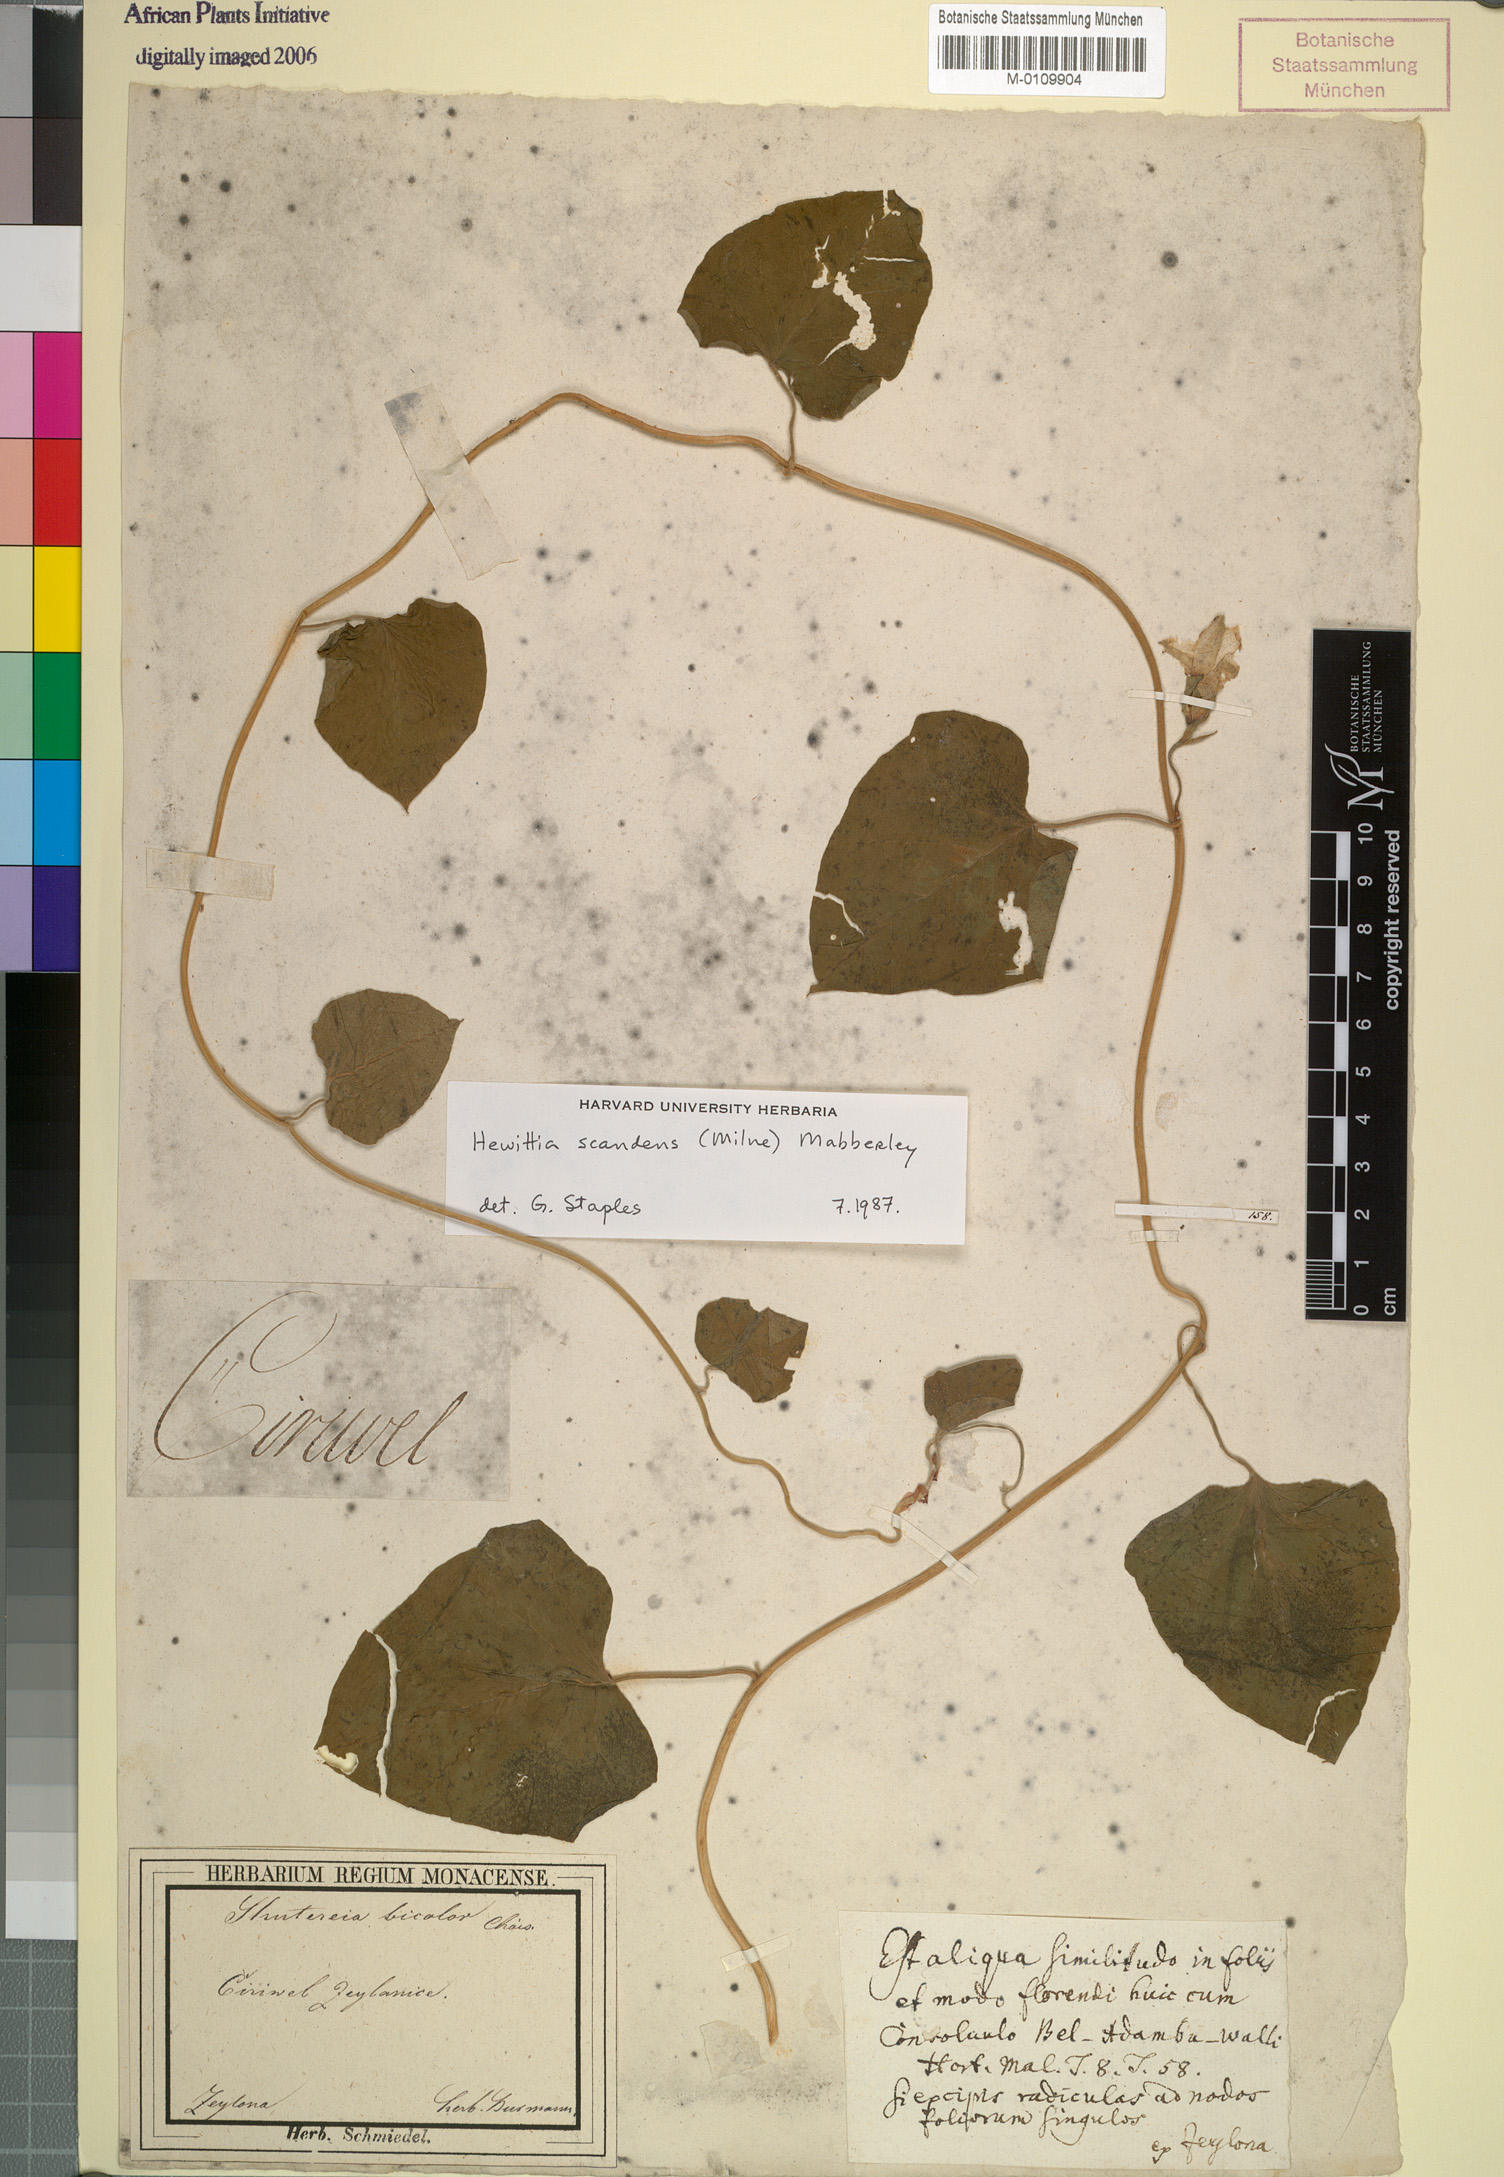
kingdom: Plantae
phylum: Tracheophyta
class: Magnoliopsida
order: Solanales
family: Convolvulaceae
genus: Hewittia
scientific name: Hewittia malabarica
